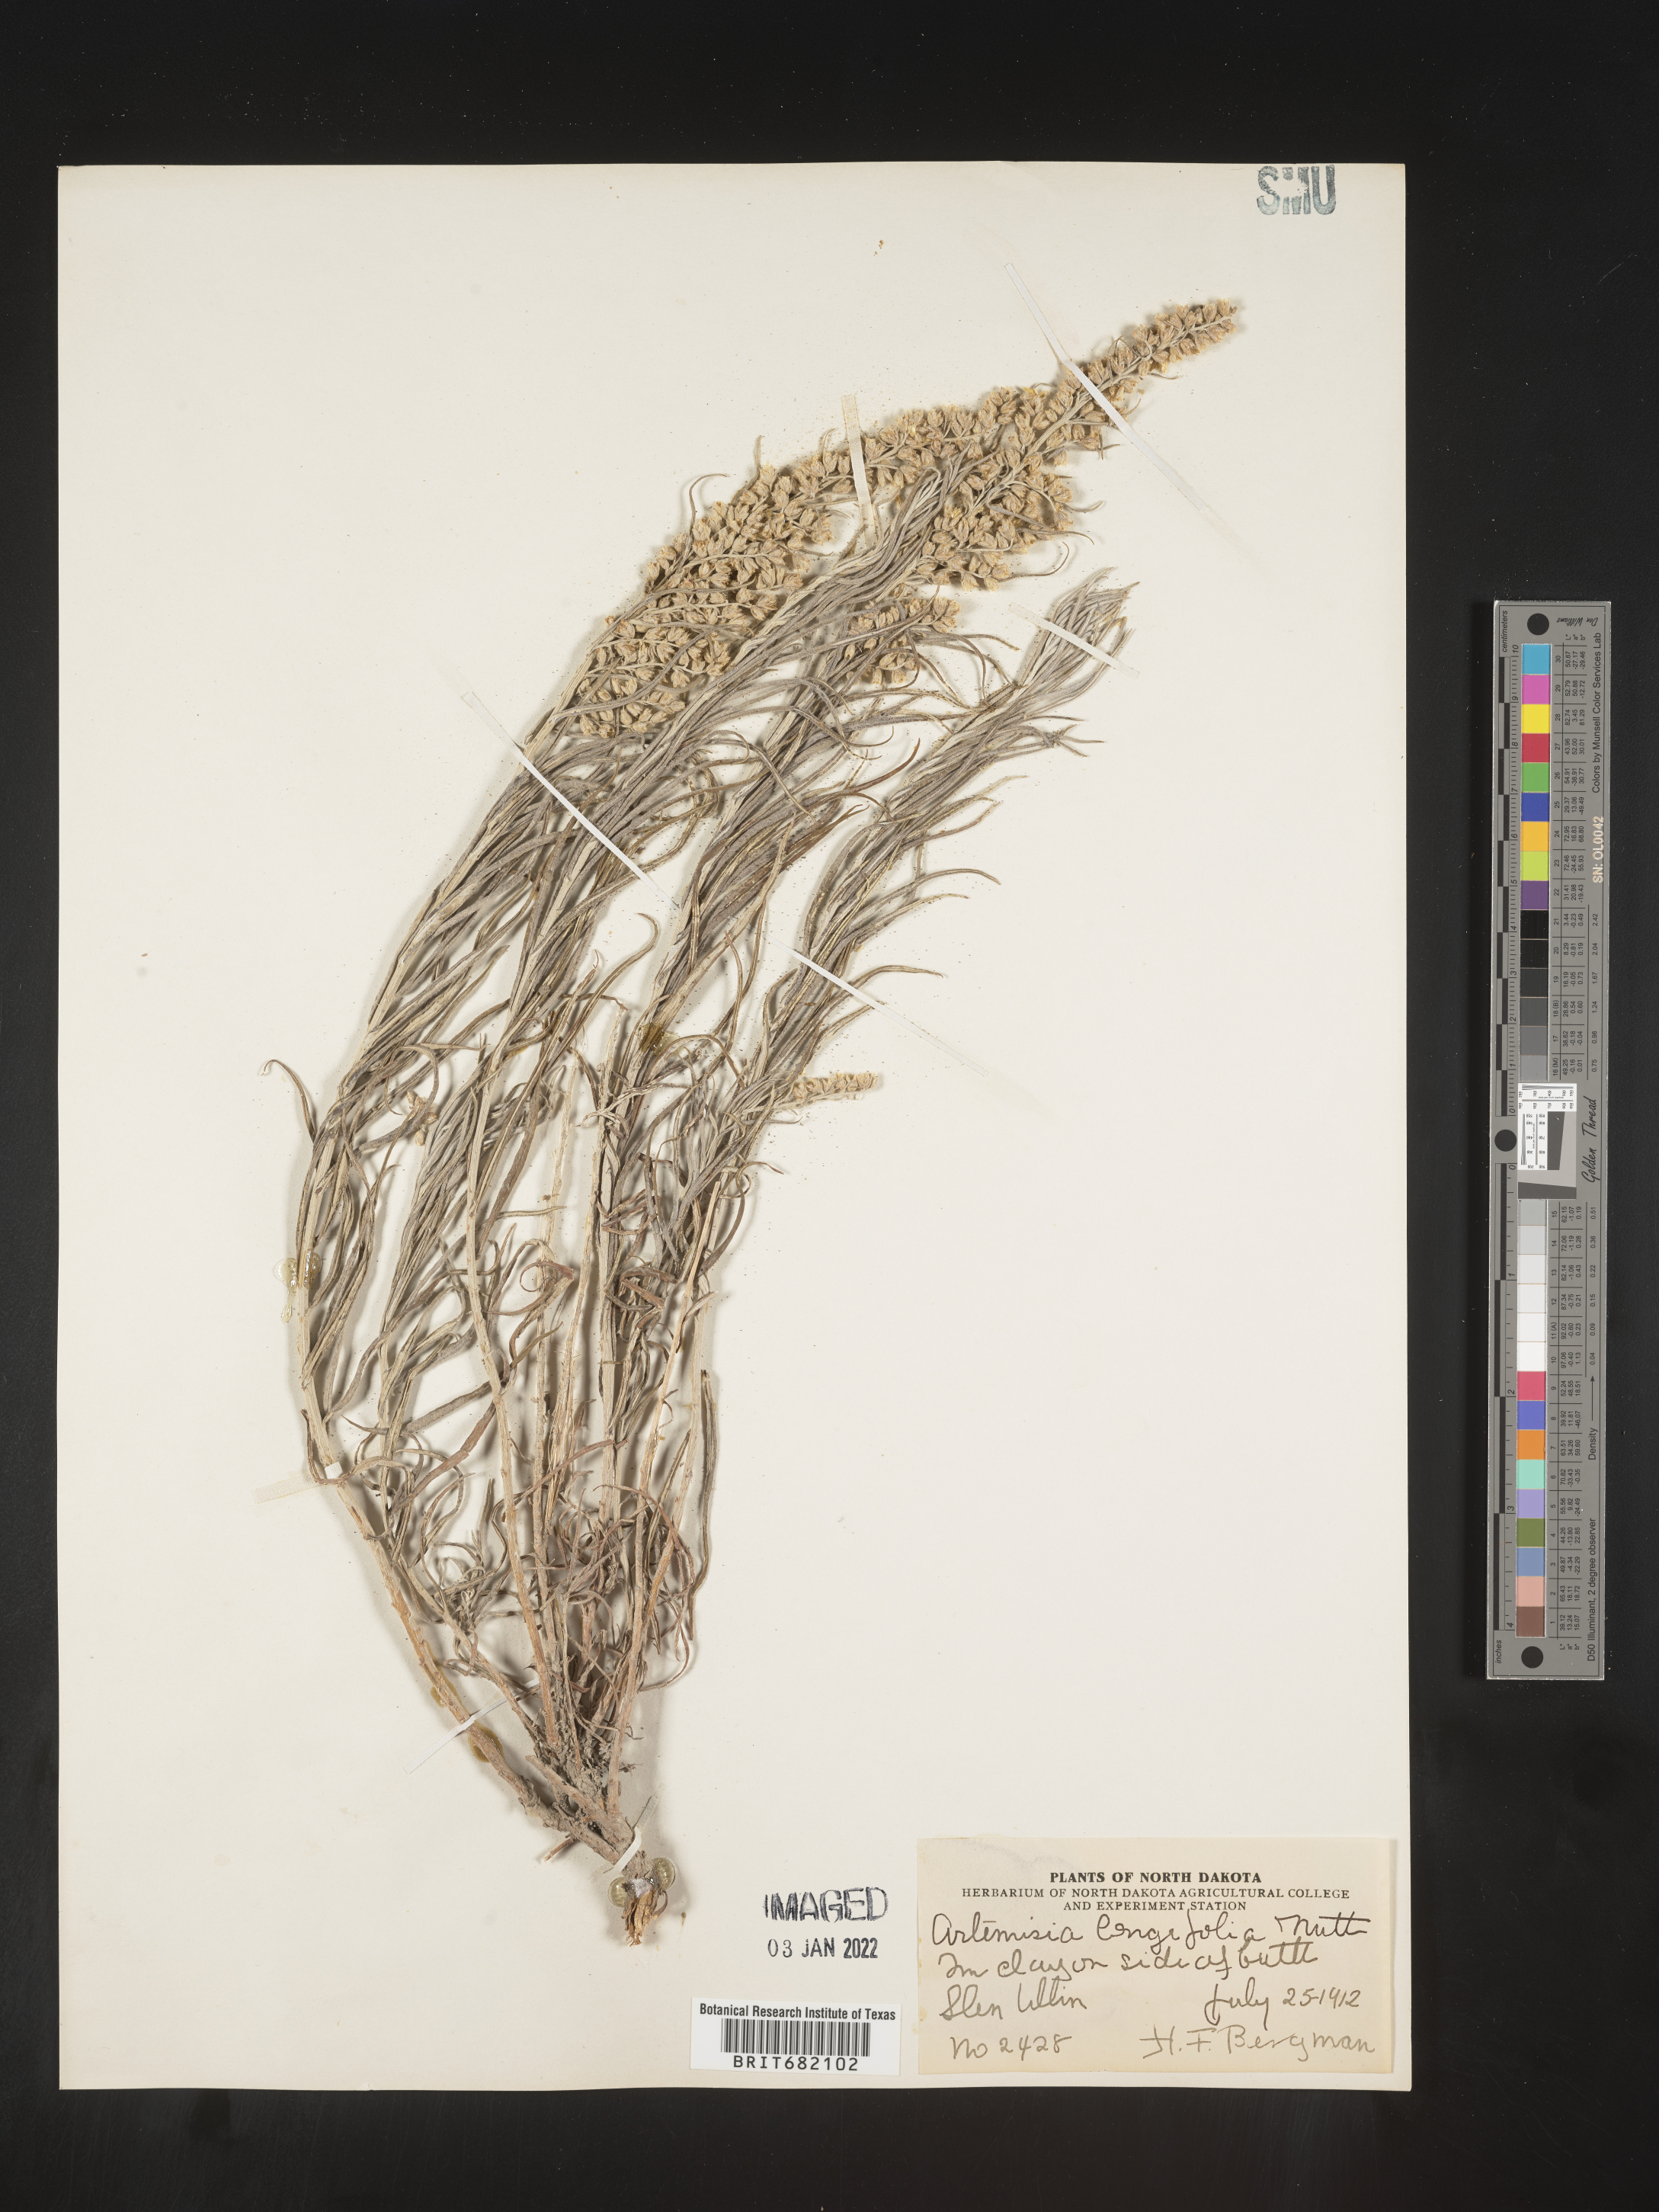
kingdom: Plantae
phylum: Tracheophyta
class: Magnoliopsida
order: Asterales
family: Asteraceae
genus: Artemisia
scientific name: Artemisia longifolia
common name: Long-leaved mugwort
